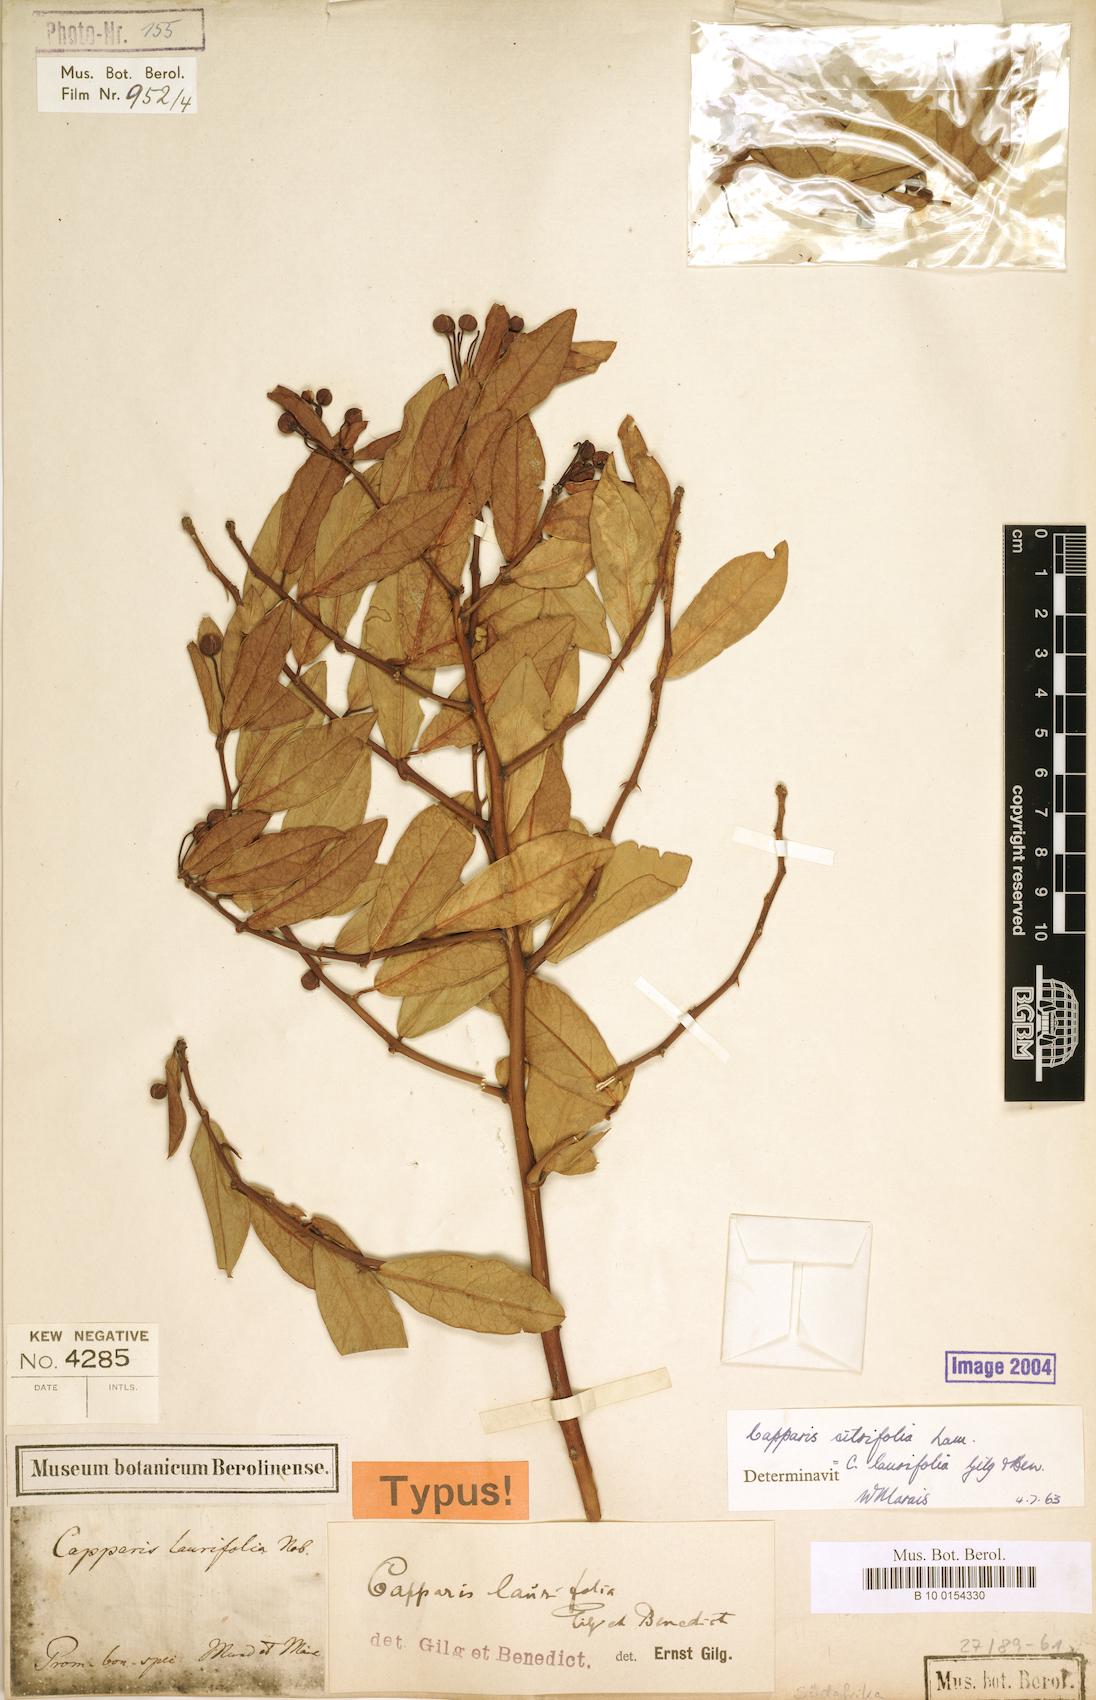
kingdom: Plantae
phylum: Tracheophyta
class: Magnoliopsida
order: Brassicales
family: Capparaceae
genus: Capparis
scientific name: Capparis sepiaria
